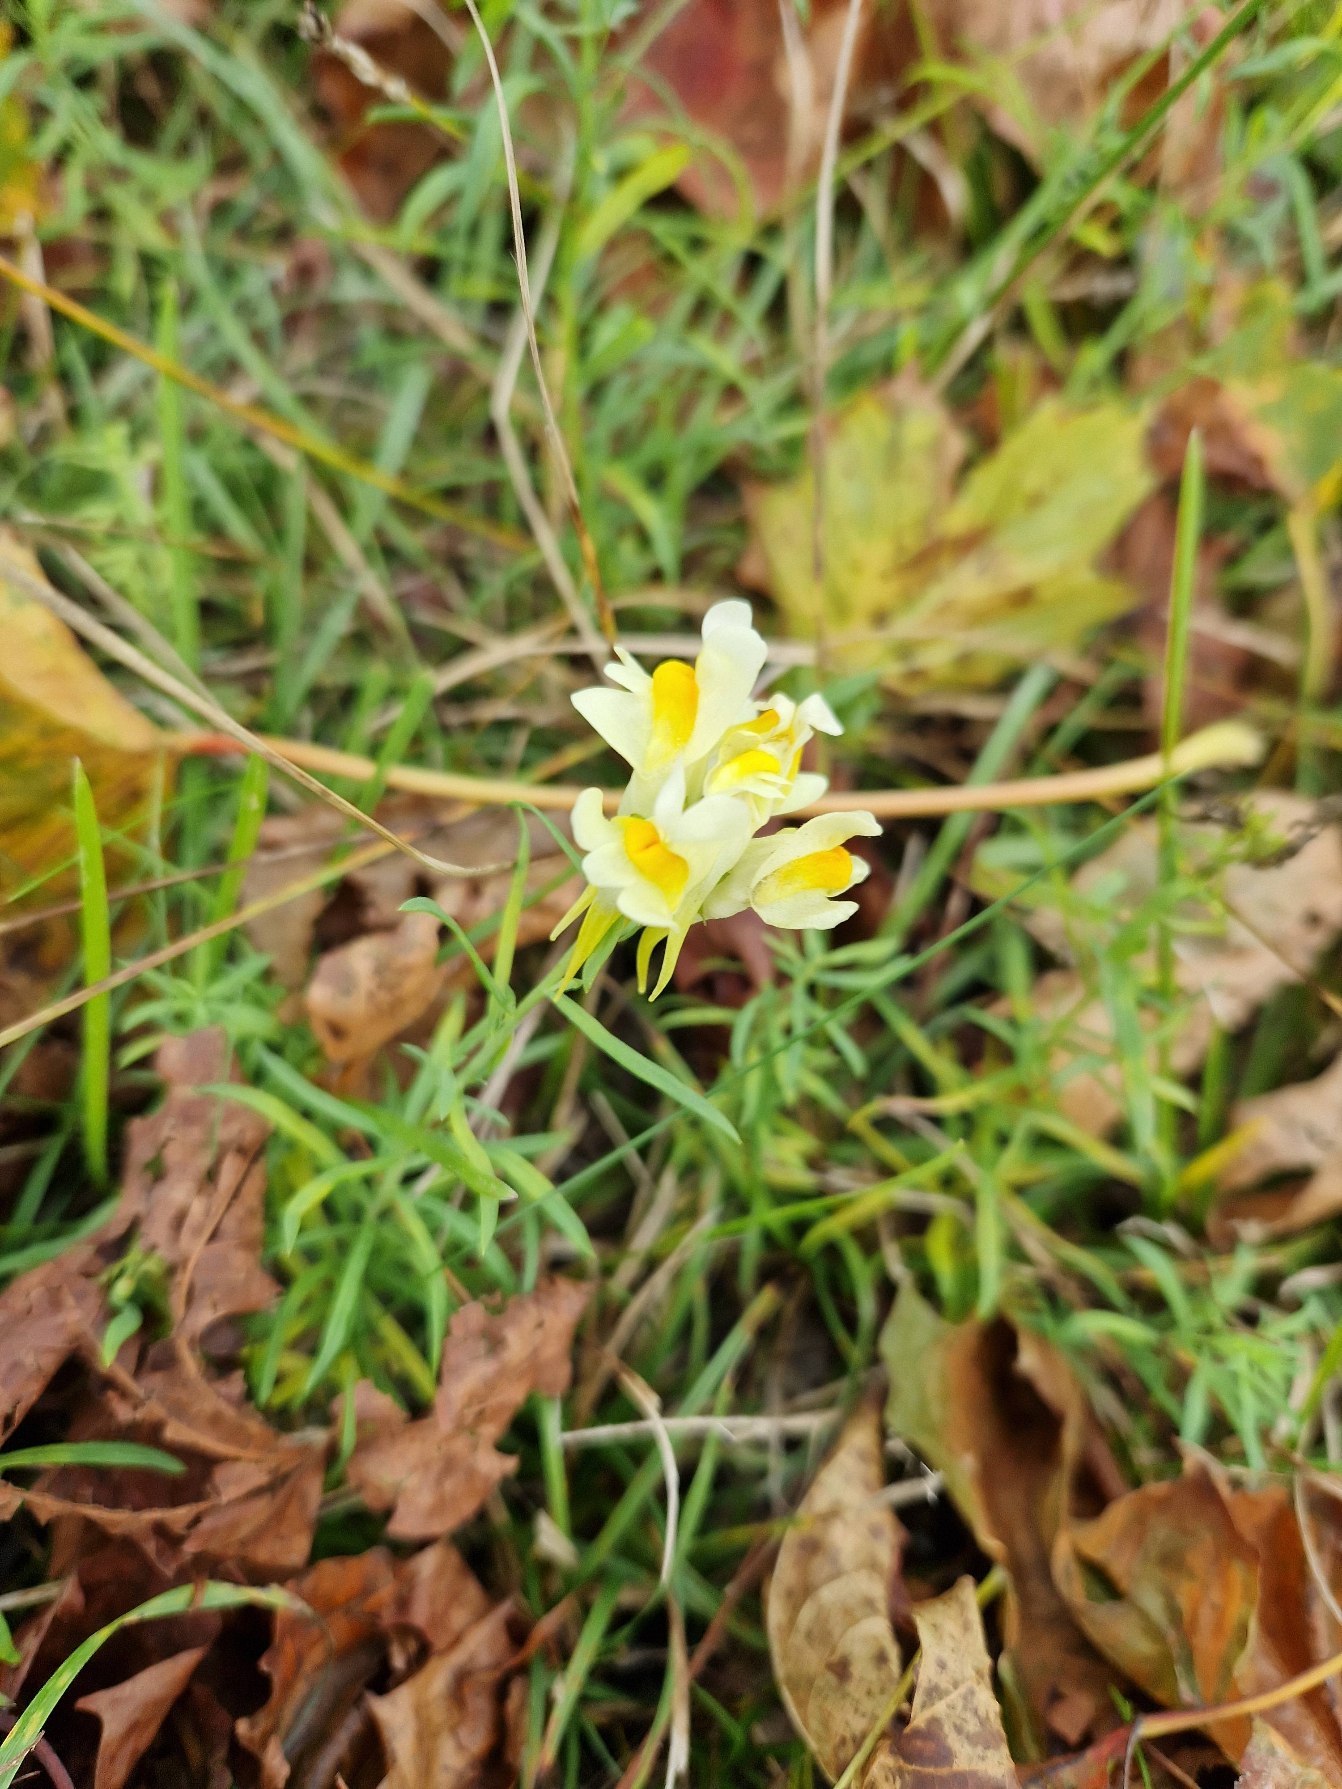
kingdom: Plantae
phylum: Tracheophyta
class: Magnoliopsida
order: Lamiales
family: Plantaginaceae
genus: Linaria
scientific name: Linaria vulgaris
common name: Almindelig torskemund
